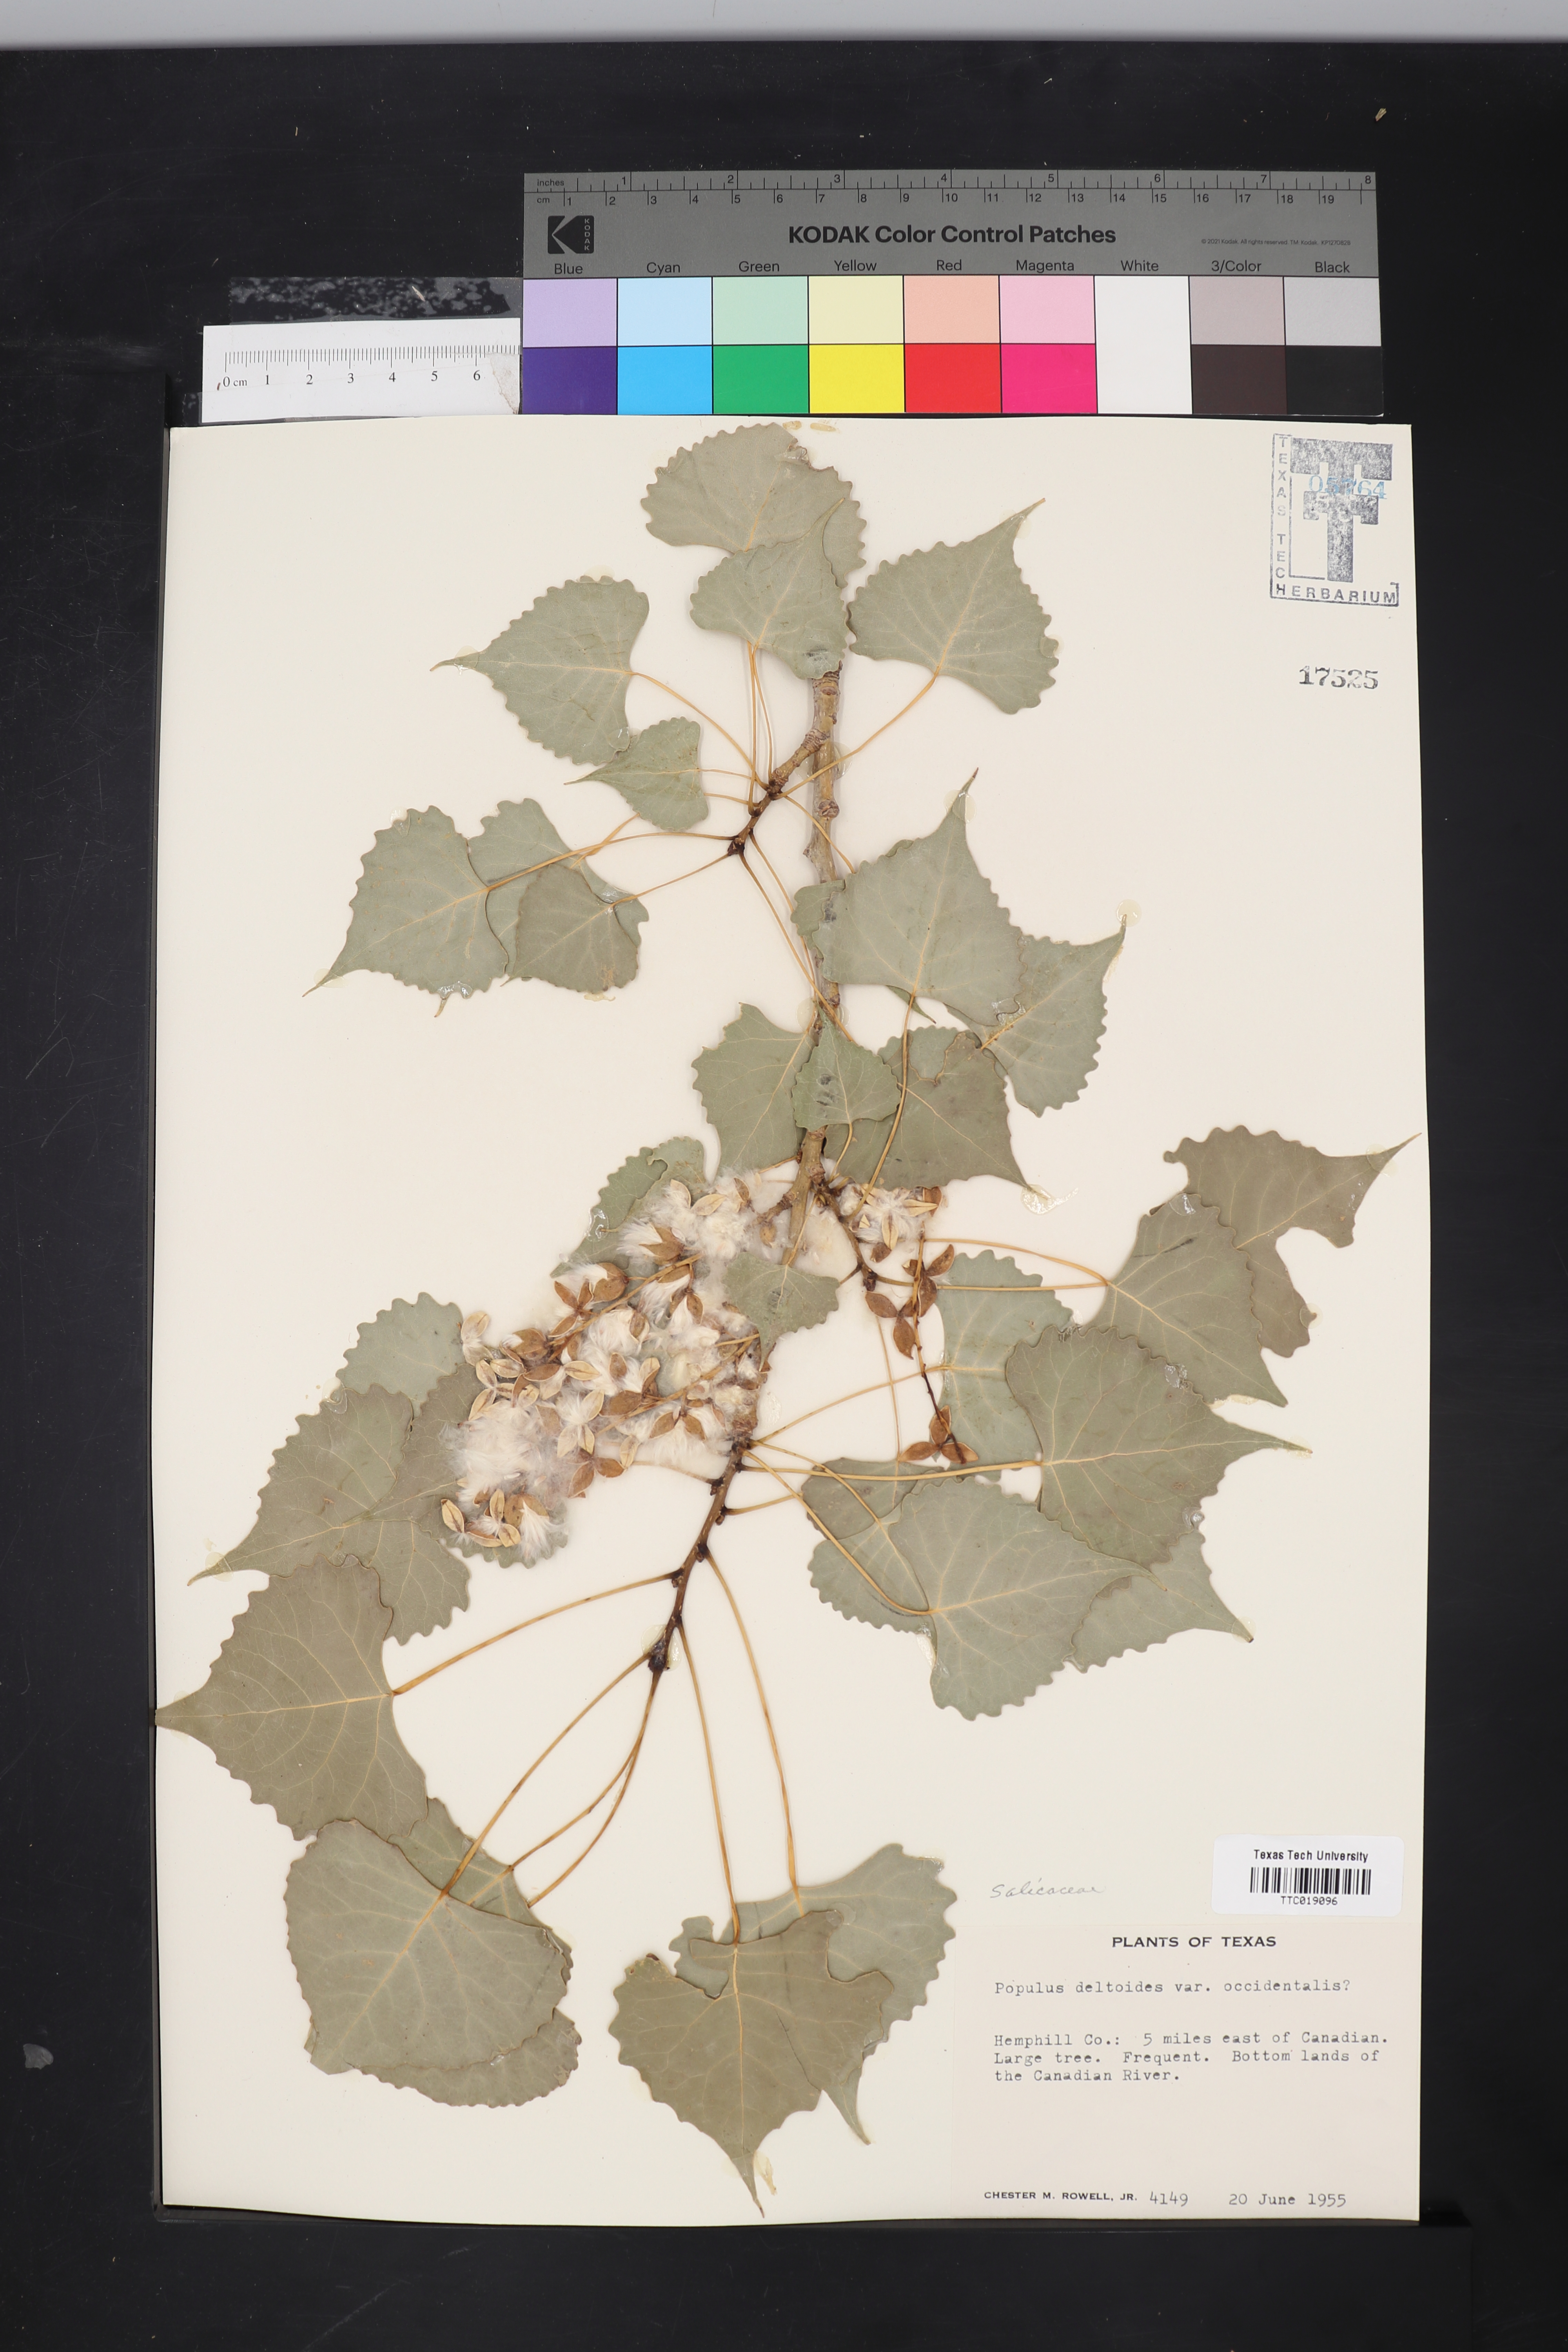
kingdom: Plantae
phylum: Tracheophyta
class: Magnoliopsida
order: Malpighiales
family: Salicaceae
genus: Populus
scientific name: Populus deltoides
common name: Eastern cottonwood
